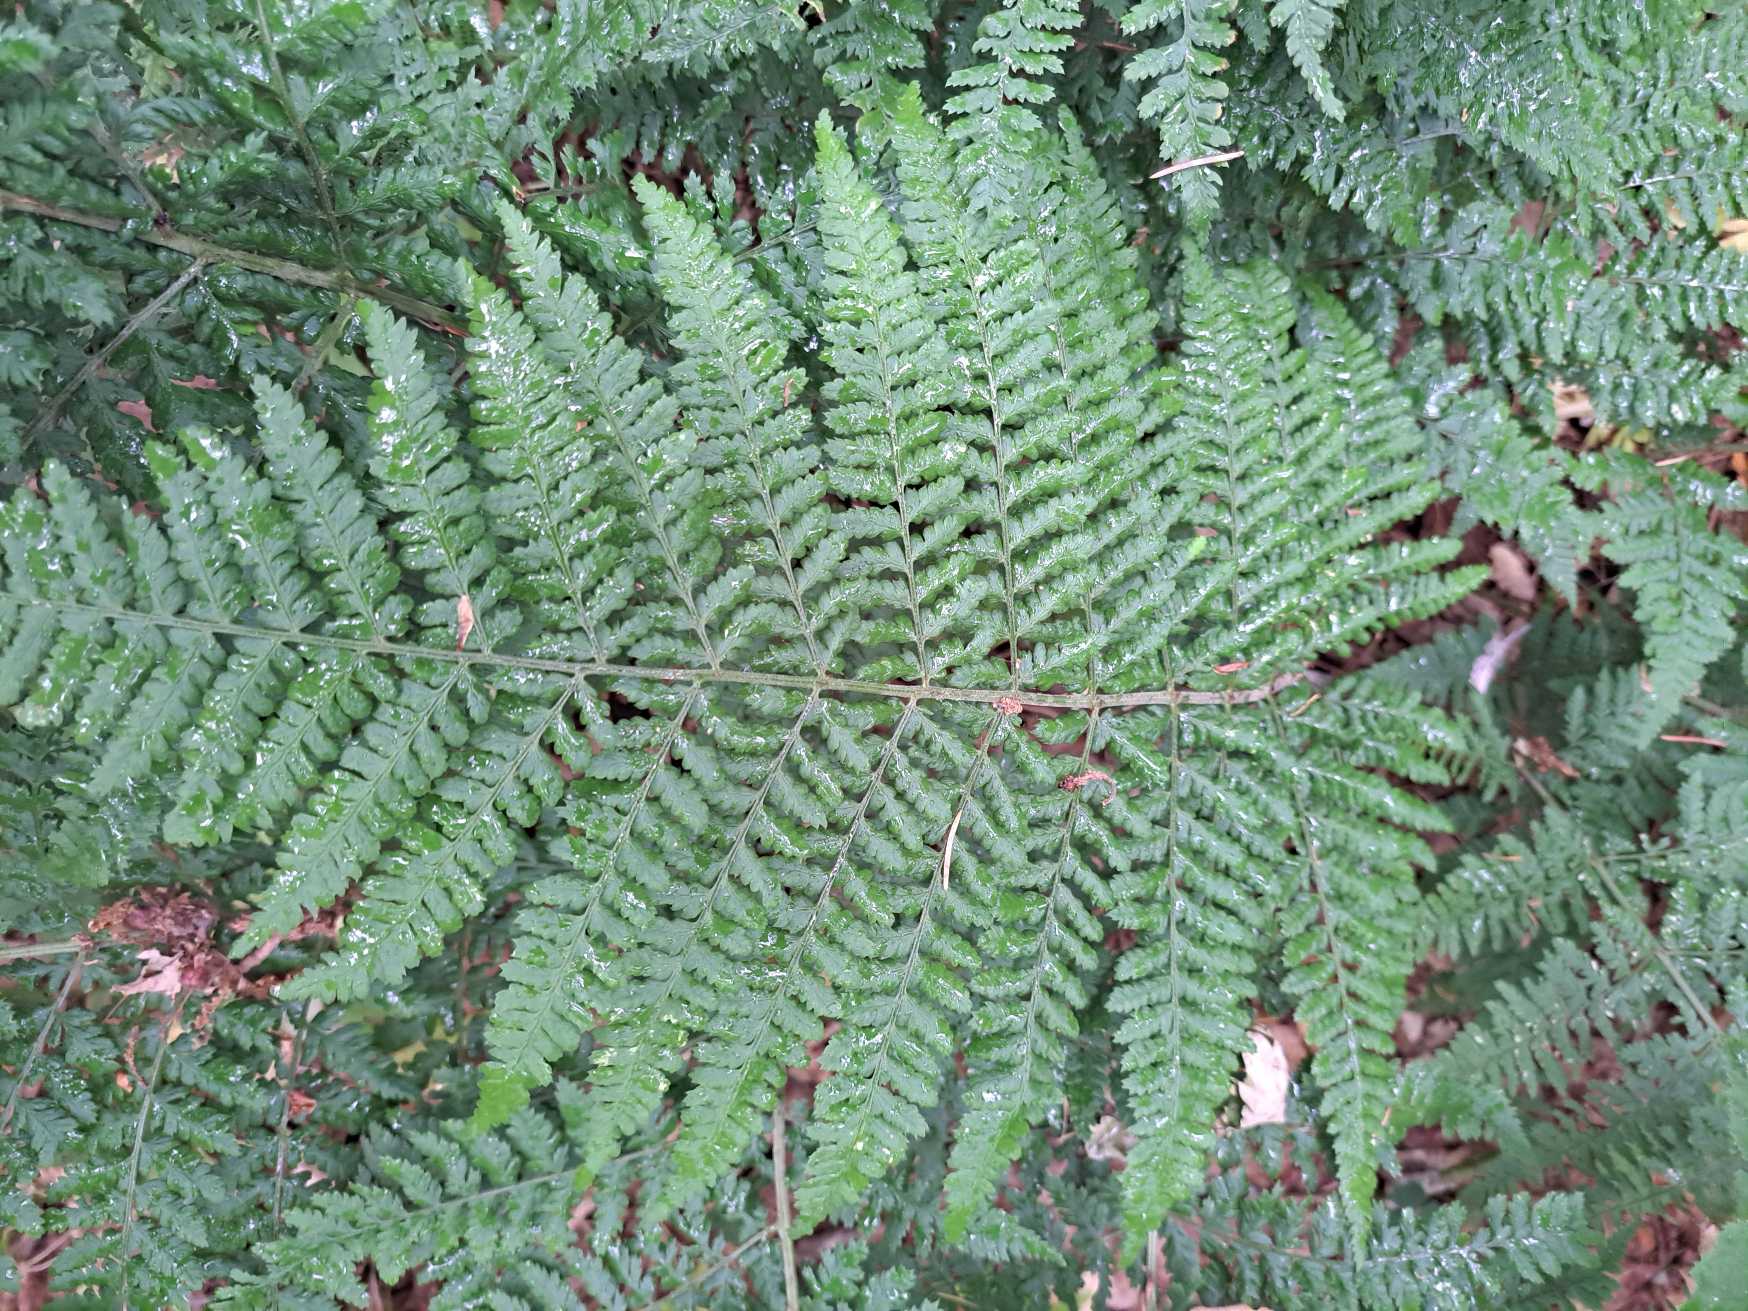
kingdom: Plantae
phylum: Tracheophyta
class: Polypodiopsida
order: Polypodiales
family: Athyriaceae
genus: Athyrium
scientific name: Athyrium filix-femina
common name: Fjerbregne
